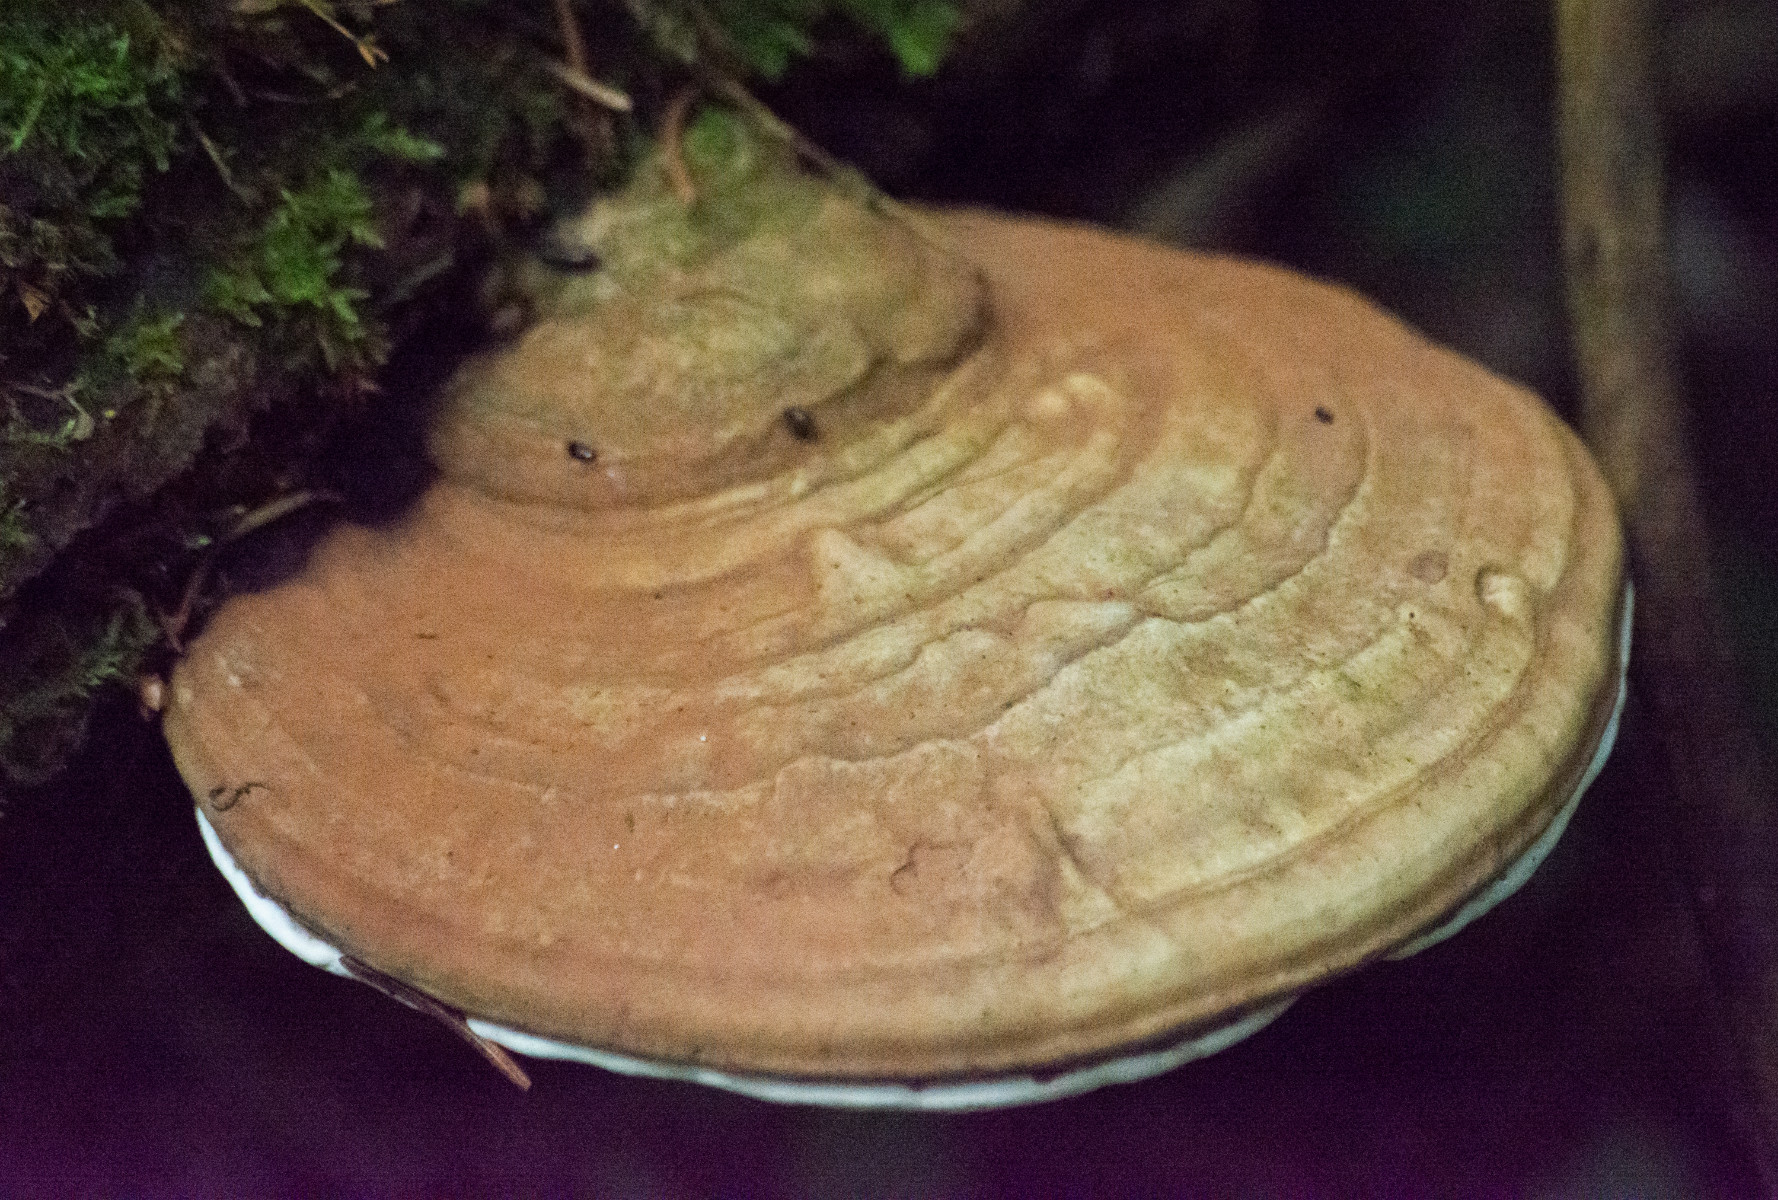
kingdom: Fungi
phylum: Basidiomycota
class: Agaricomycetes
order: Polyporales
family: Polyporaceae
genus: Ganoderma
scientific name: Ganoderma applanatum
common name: flad lakporesvamp
